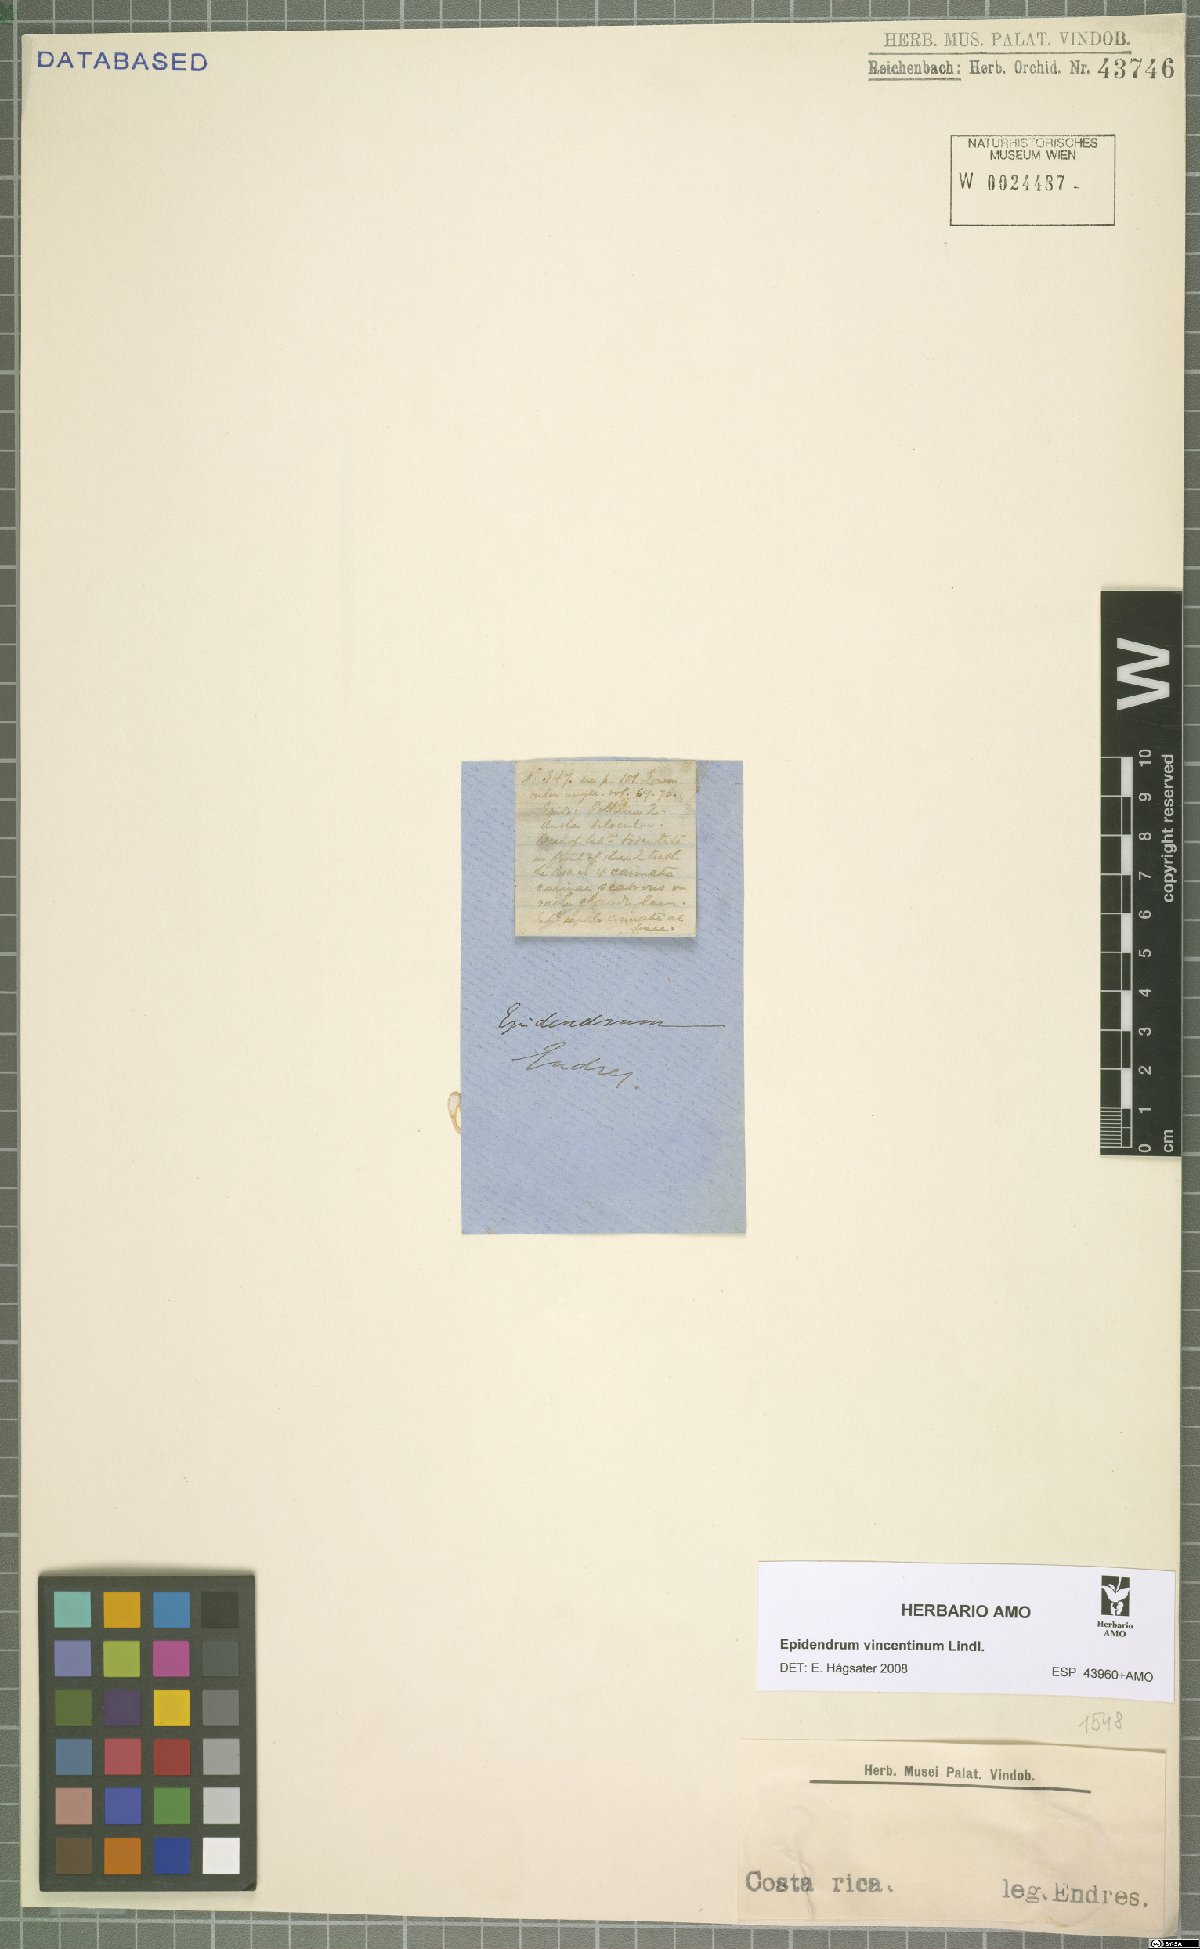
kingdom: Plantae
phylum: Tracheophyta
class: Liliopsida
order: Asparagales
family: Orchidaceae
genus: Epidendrum
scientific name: Epidendrum vincentinum
